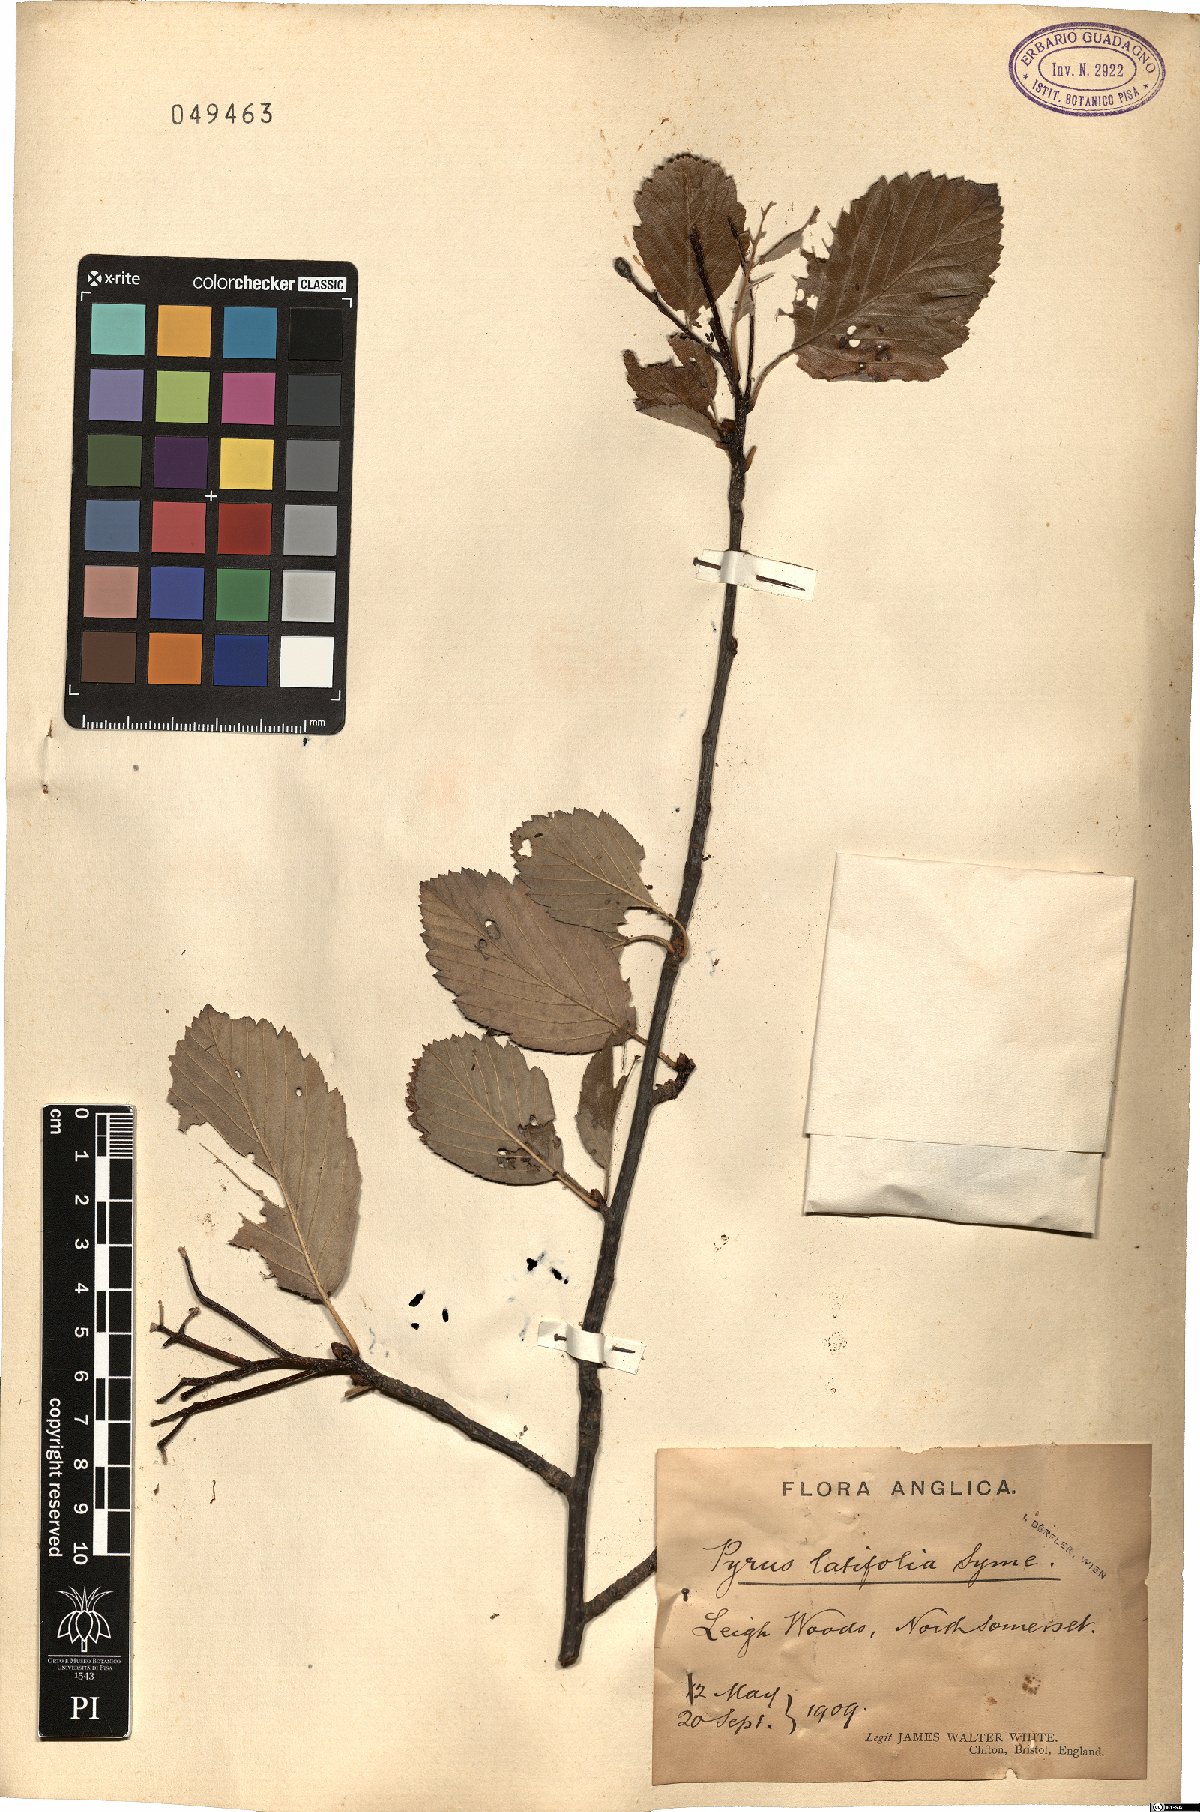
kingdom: Plantae
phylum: Tracheophyta
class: Magnoliopsida
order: Rosales
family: Rosaceae
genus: Karpatiosorbus
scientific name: Karpatiosorbus latifolia
